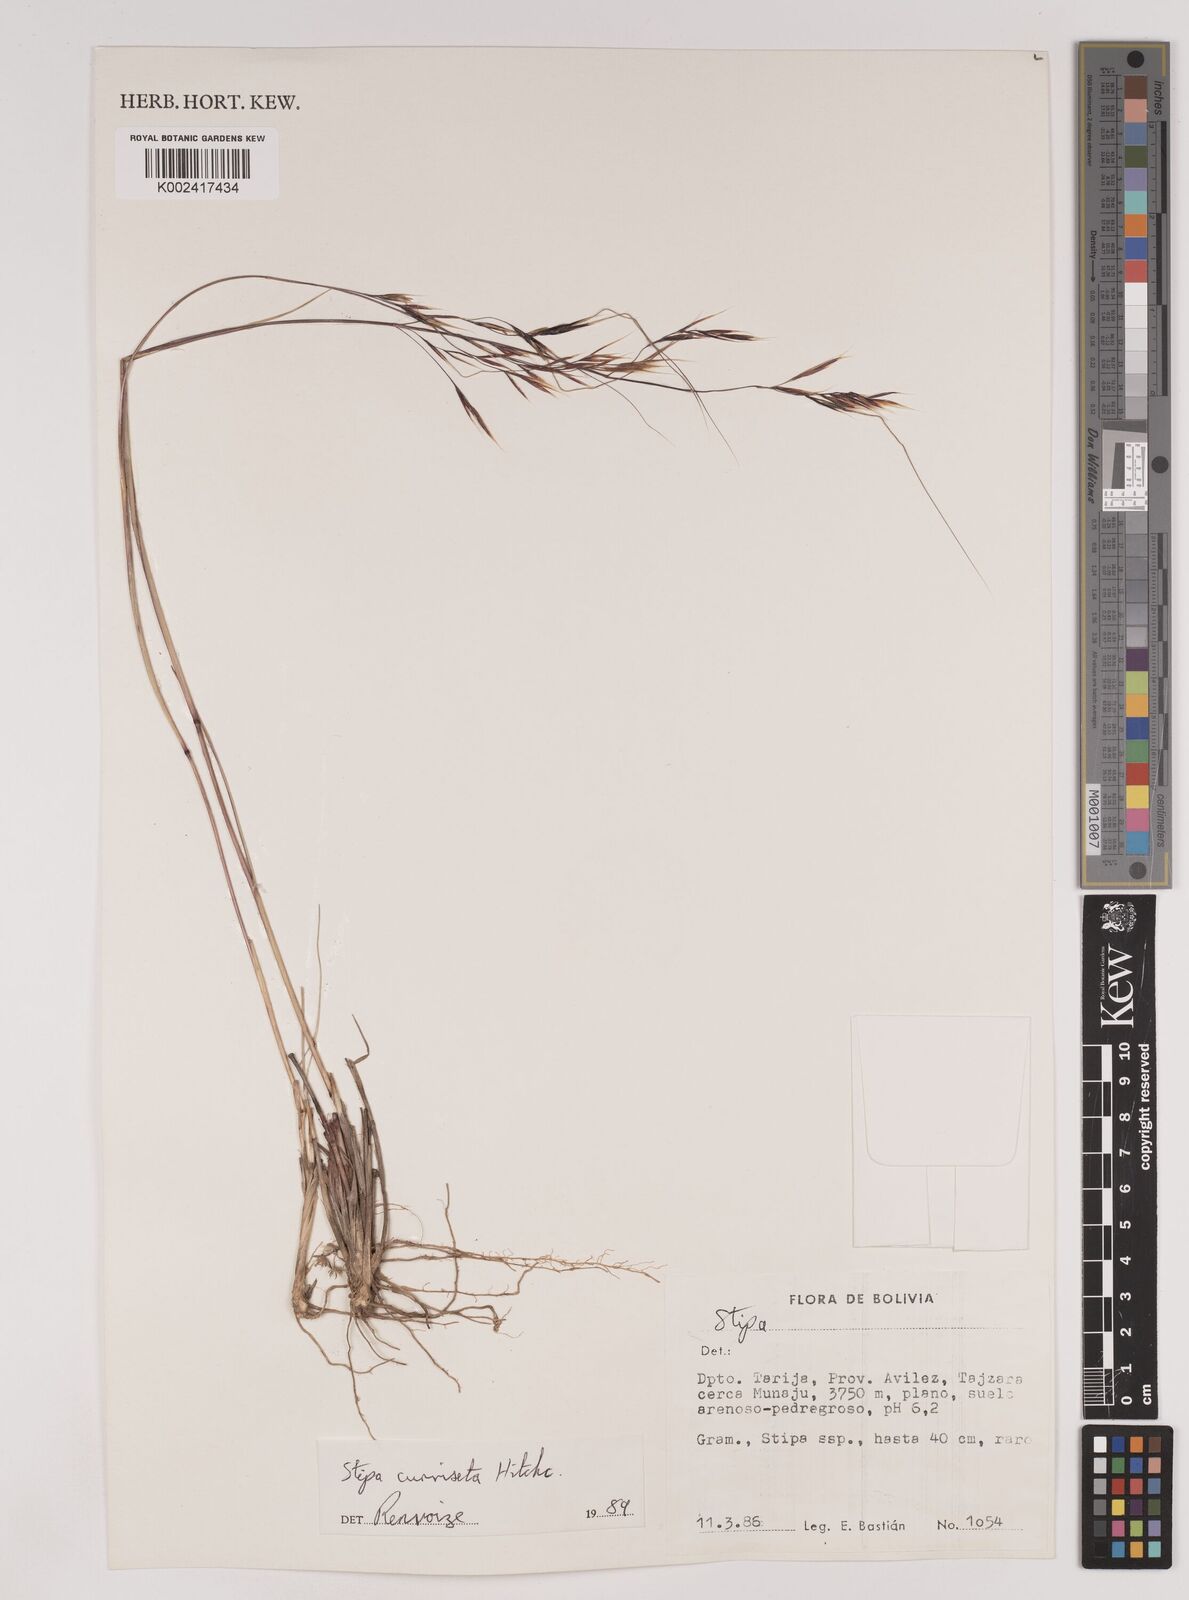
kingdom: Plantae
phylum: Tracheophyta
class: Liliopsida
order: Poales
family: Poaceae
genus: Nassella
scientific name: Nassella arcuata
